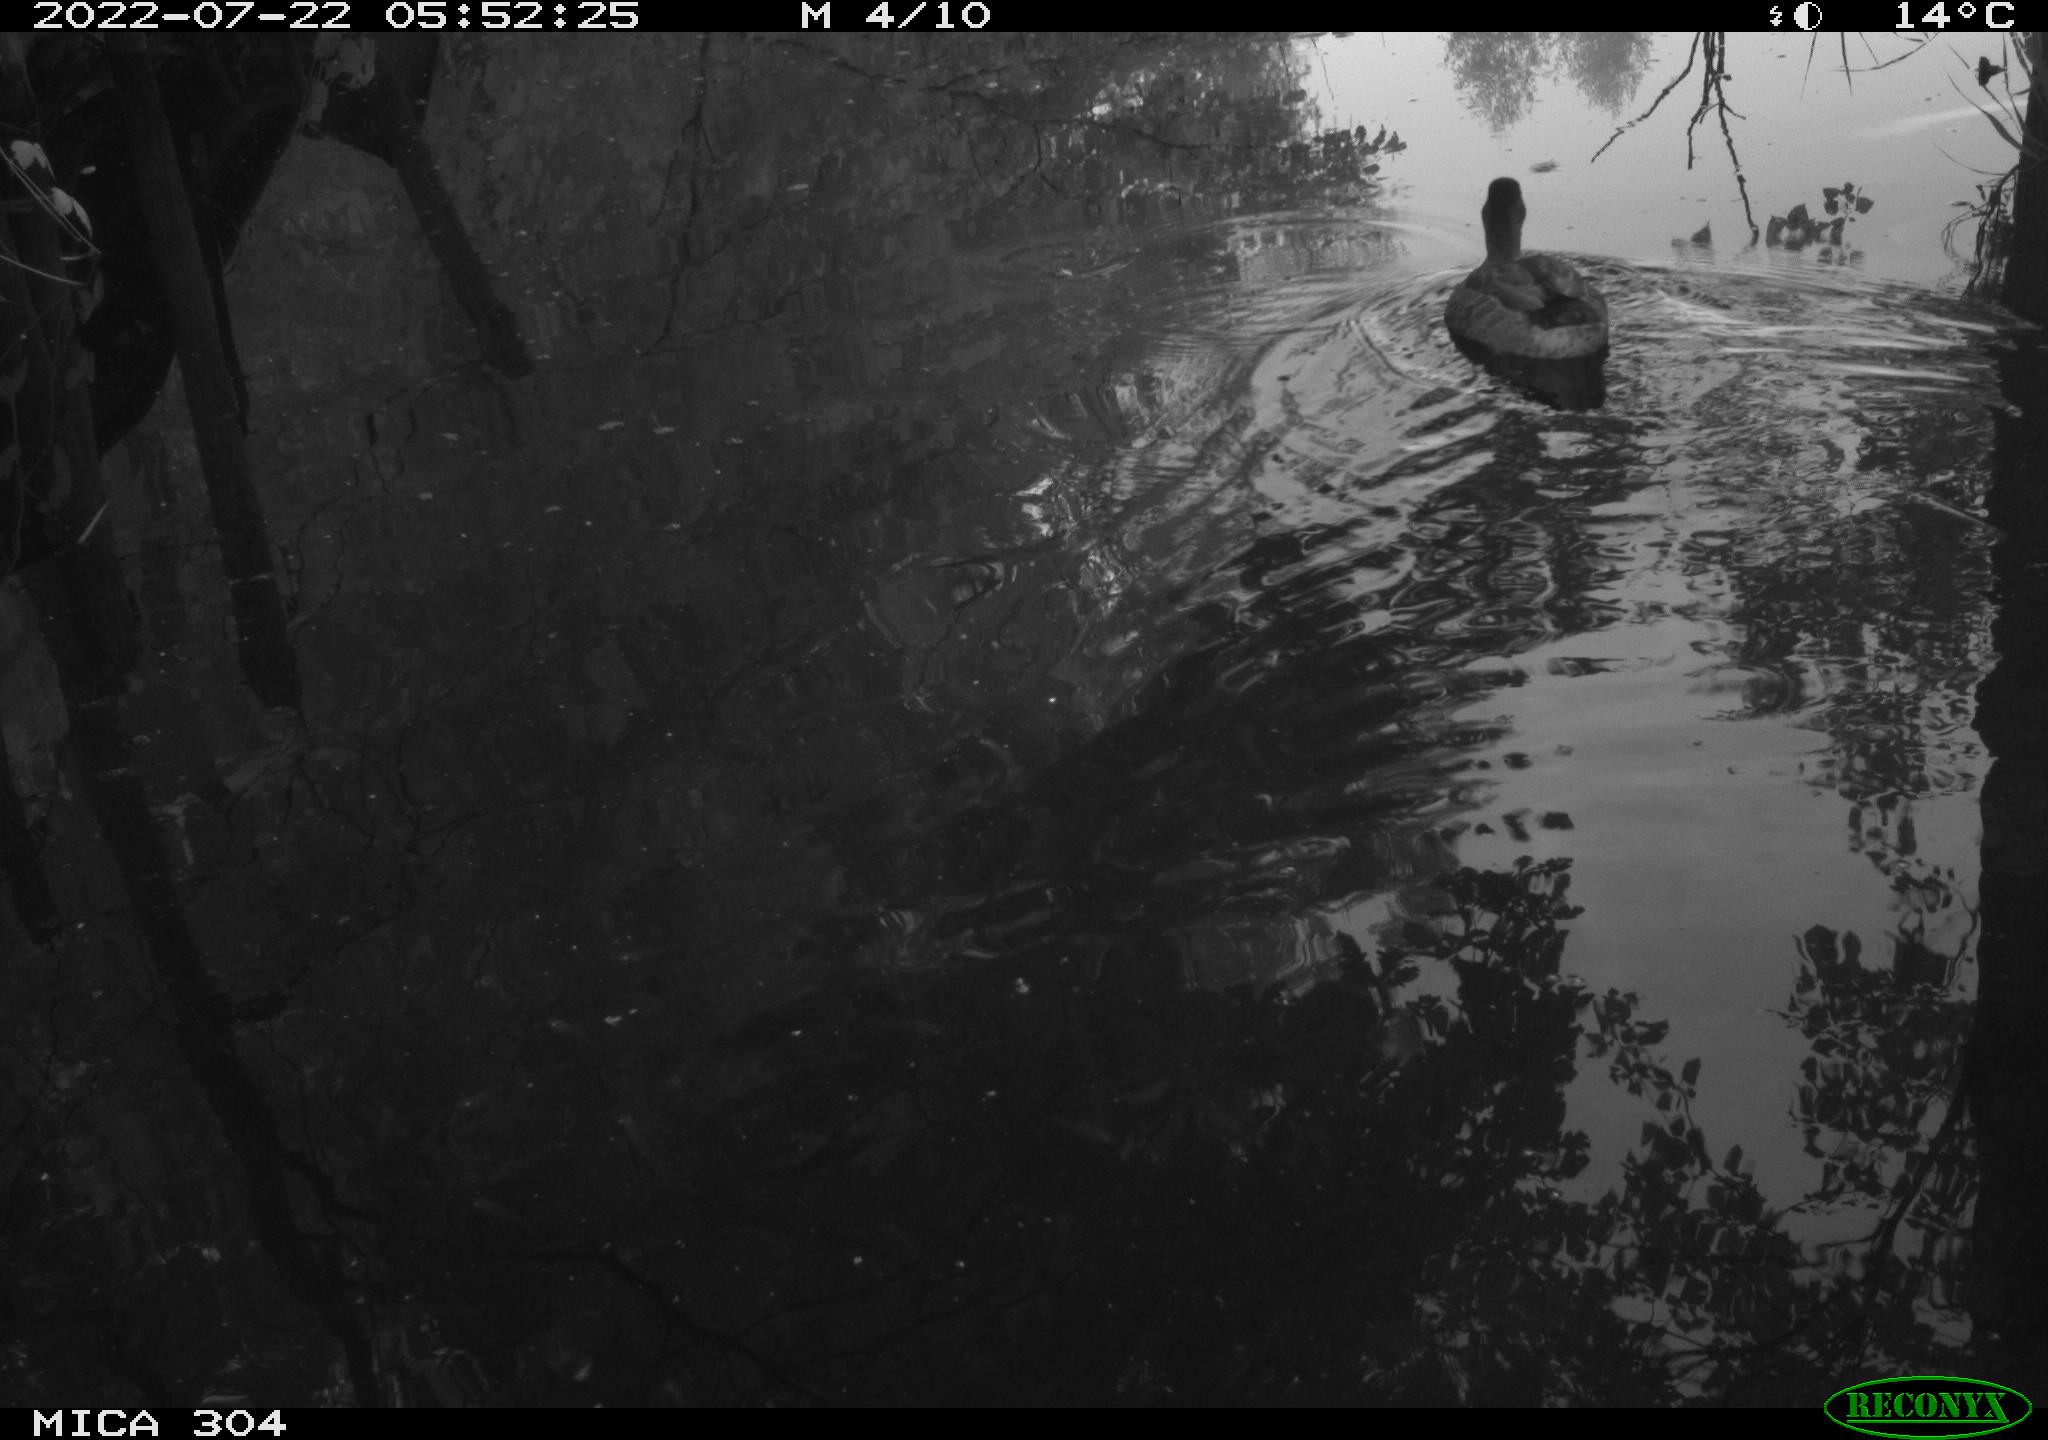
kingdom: Animalia
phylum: Chordata
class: Aves
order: Gruiformes
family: Rallidae
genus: Fulica
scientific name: Fulica atra
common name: Eurasian coot
